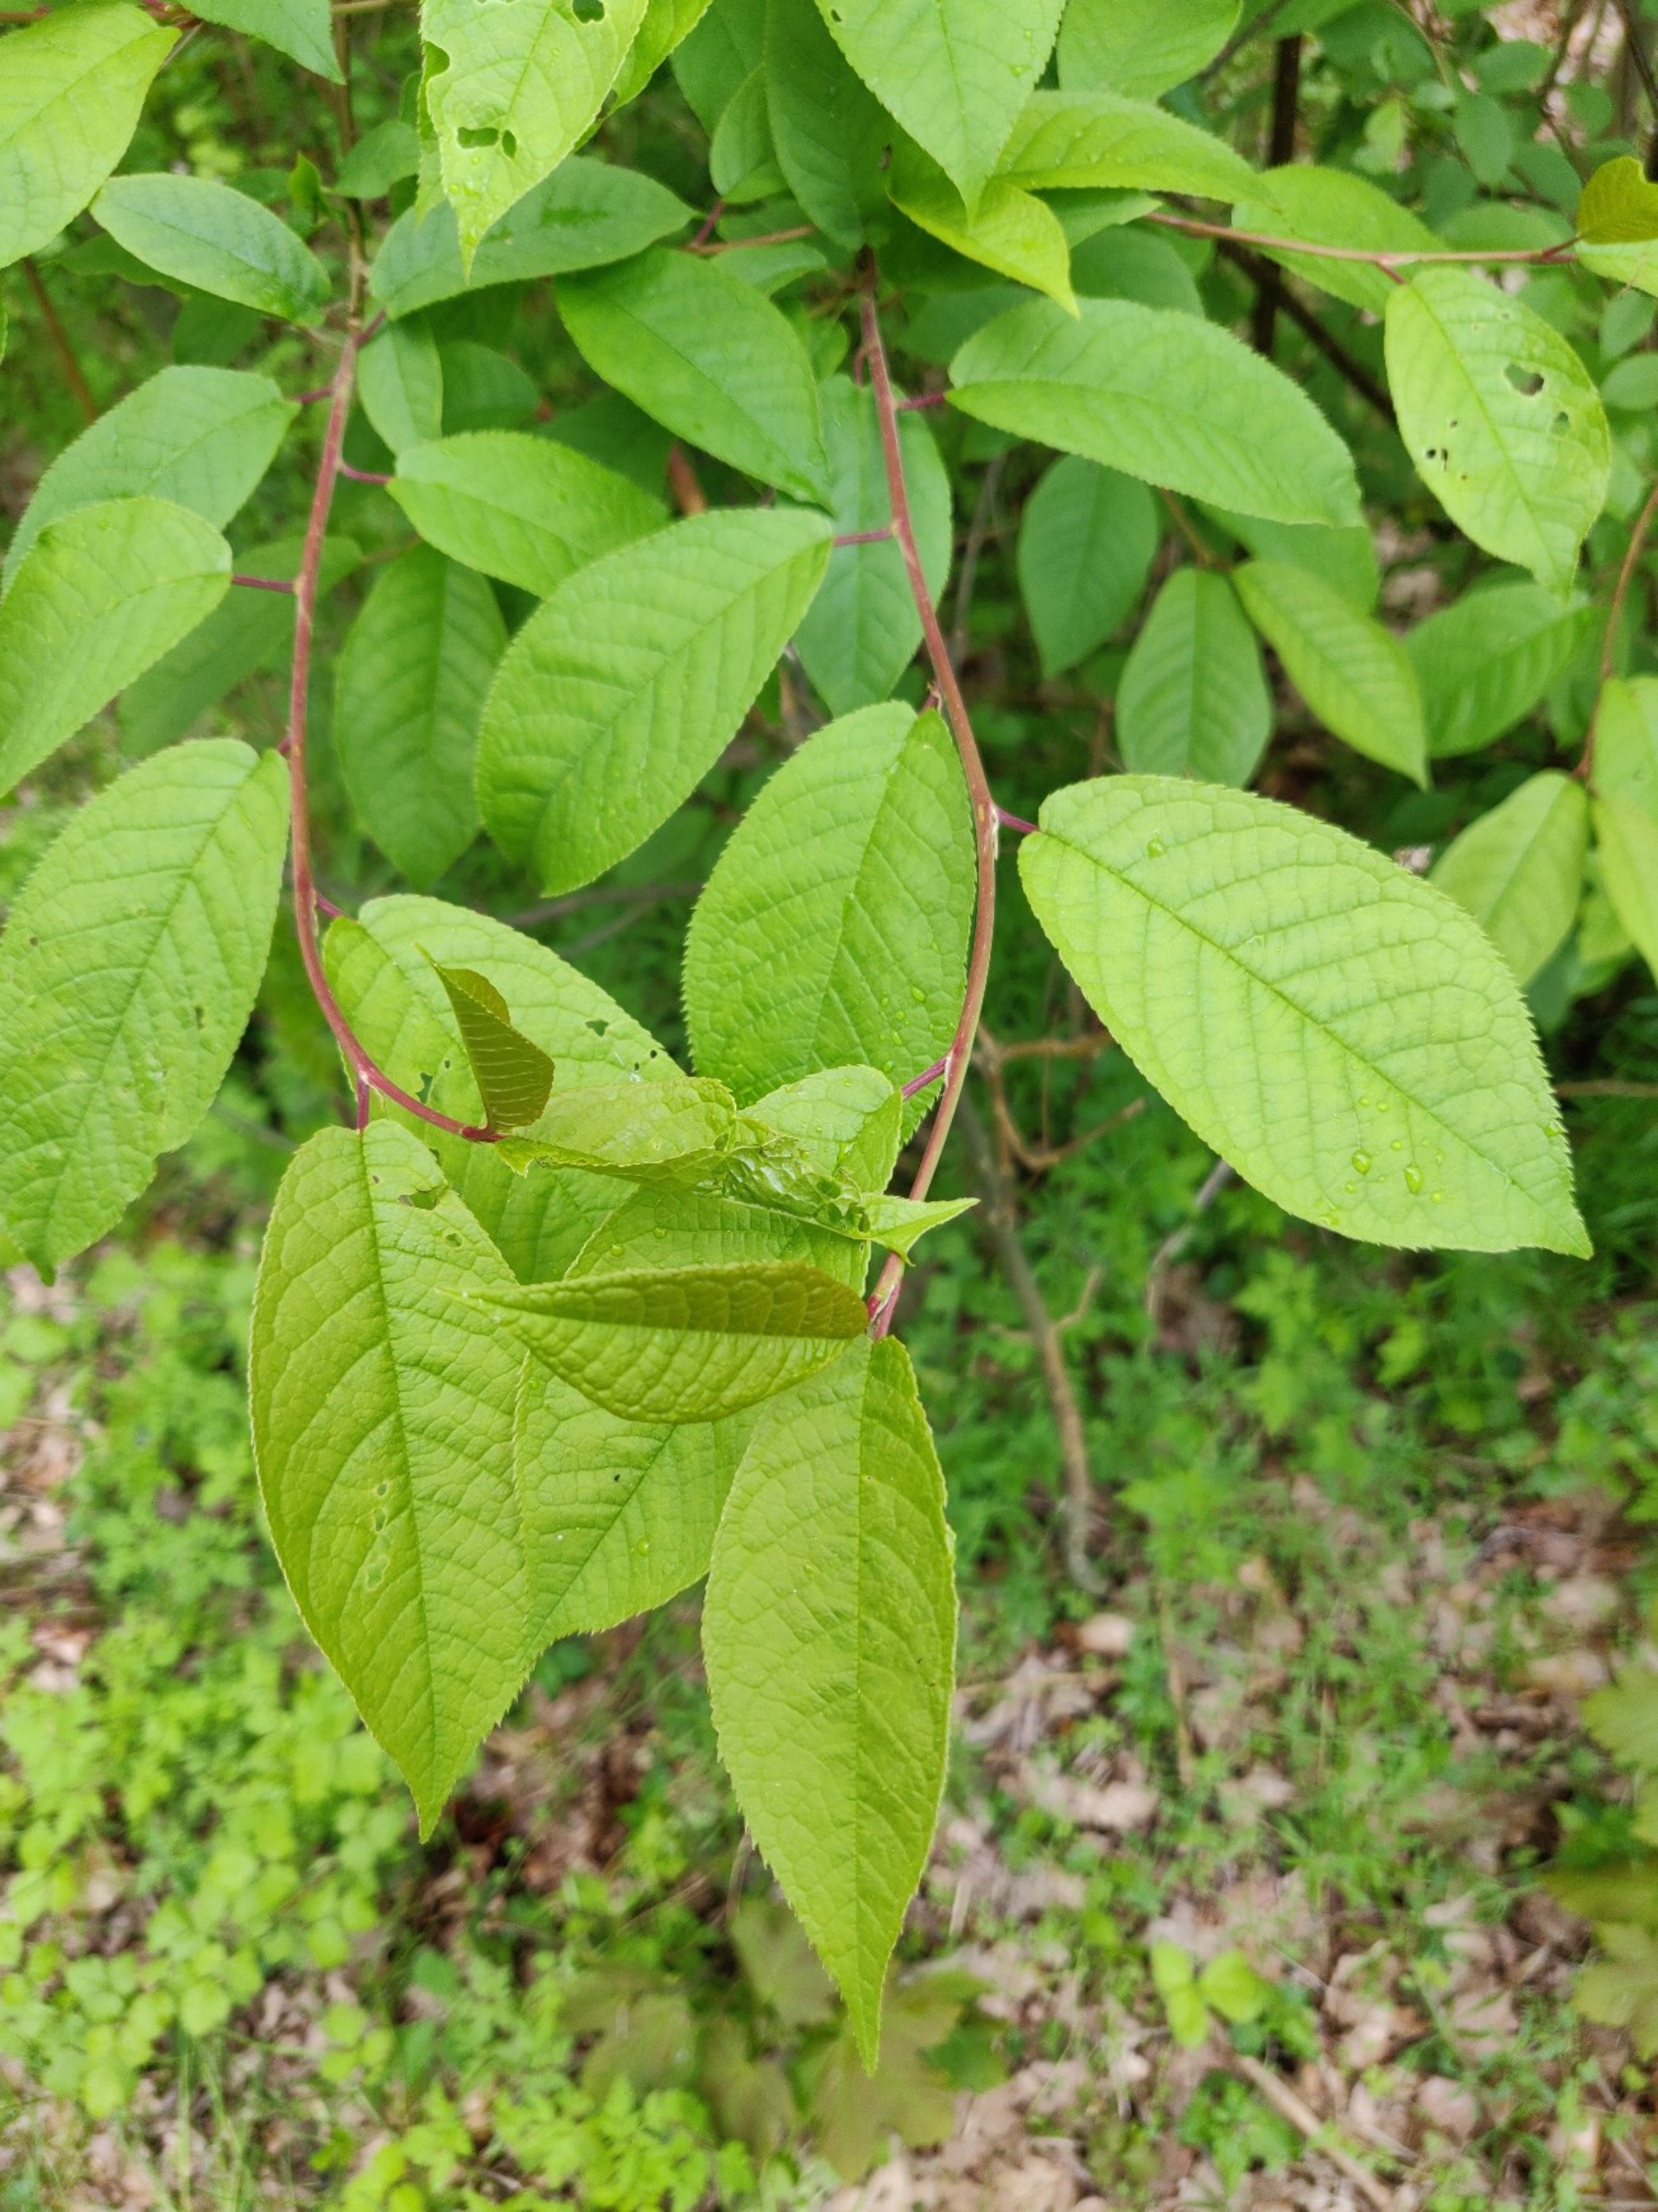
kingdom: Plantae
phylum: Tracheophyta
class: Magnoliopsida
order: Rosales
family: Rosaceae
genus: Prunus
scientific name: Prunus padus
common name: Almindelig hæg
